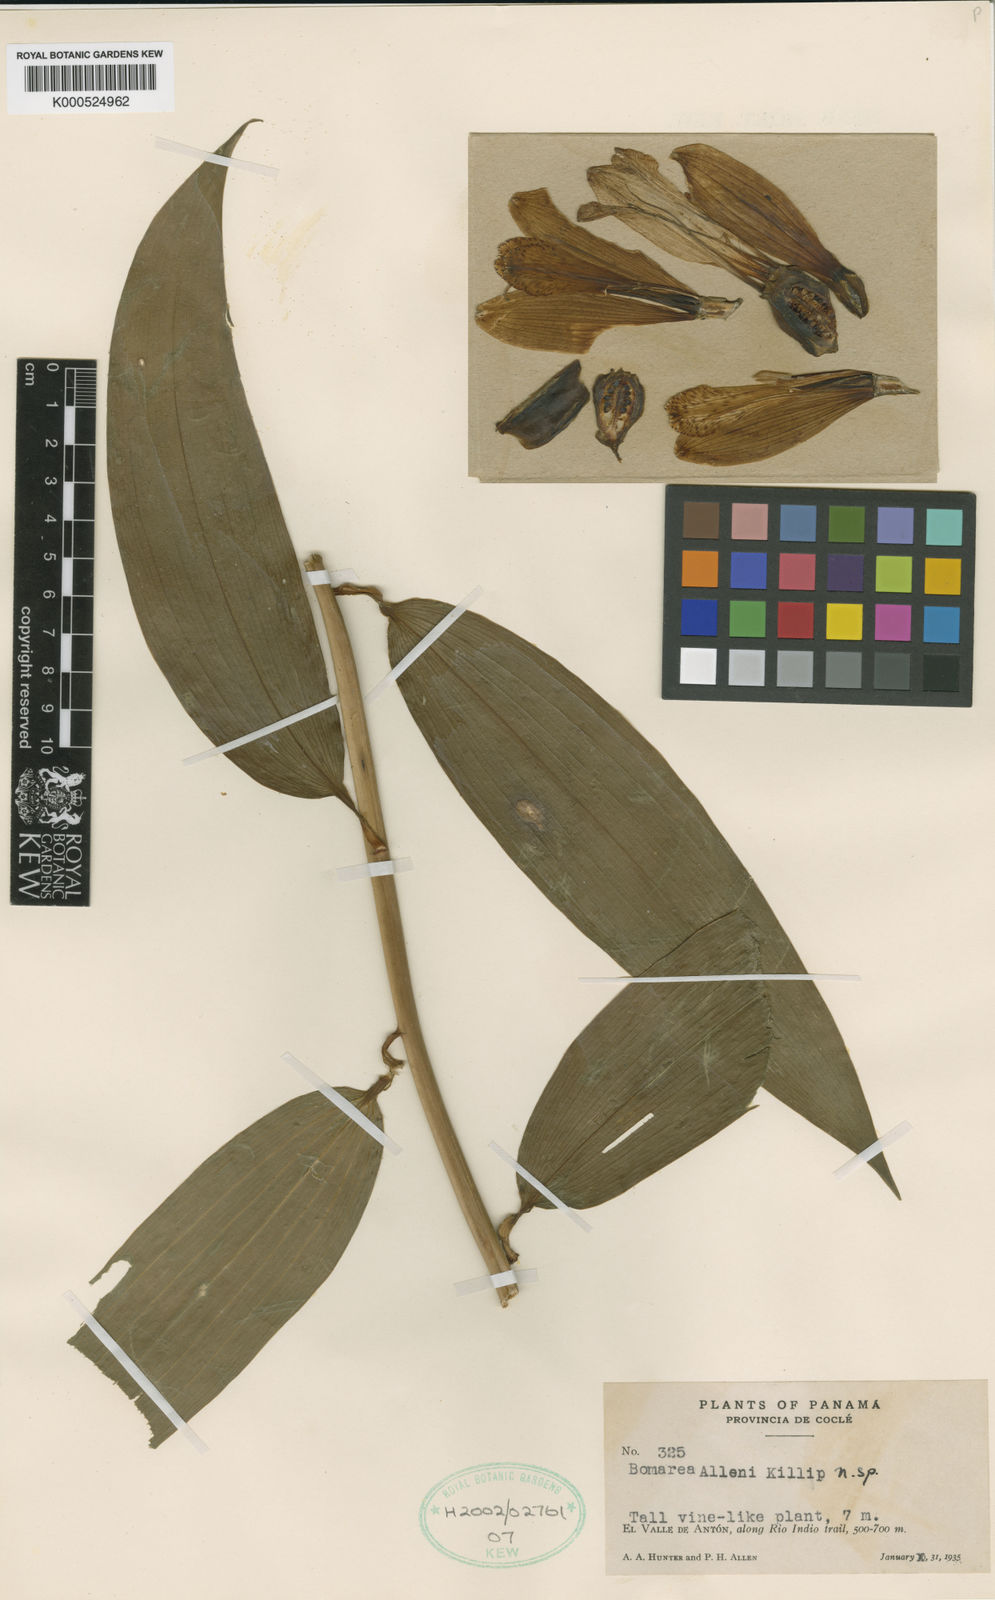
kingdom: Plantae
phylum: Tracheophyta
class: Liliopsida
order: Liliales
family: Alstroemeriaceae
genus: Bomarea
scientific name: Bomarea carderi
